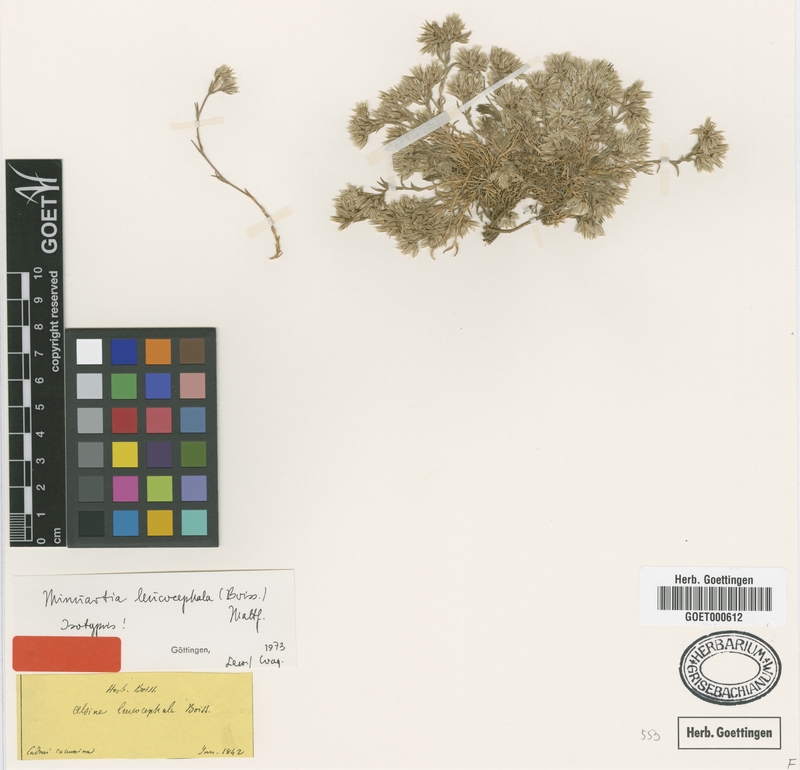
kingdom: Plantae
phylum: Tracheophyta
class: Magnoliopsida
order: Caryophyllales
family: Caryophyllaceae
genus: Minuartia
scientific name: Minuartia leucocephala
